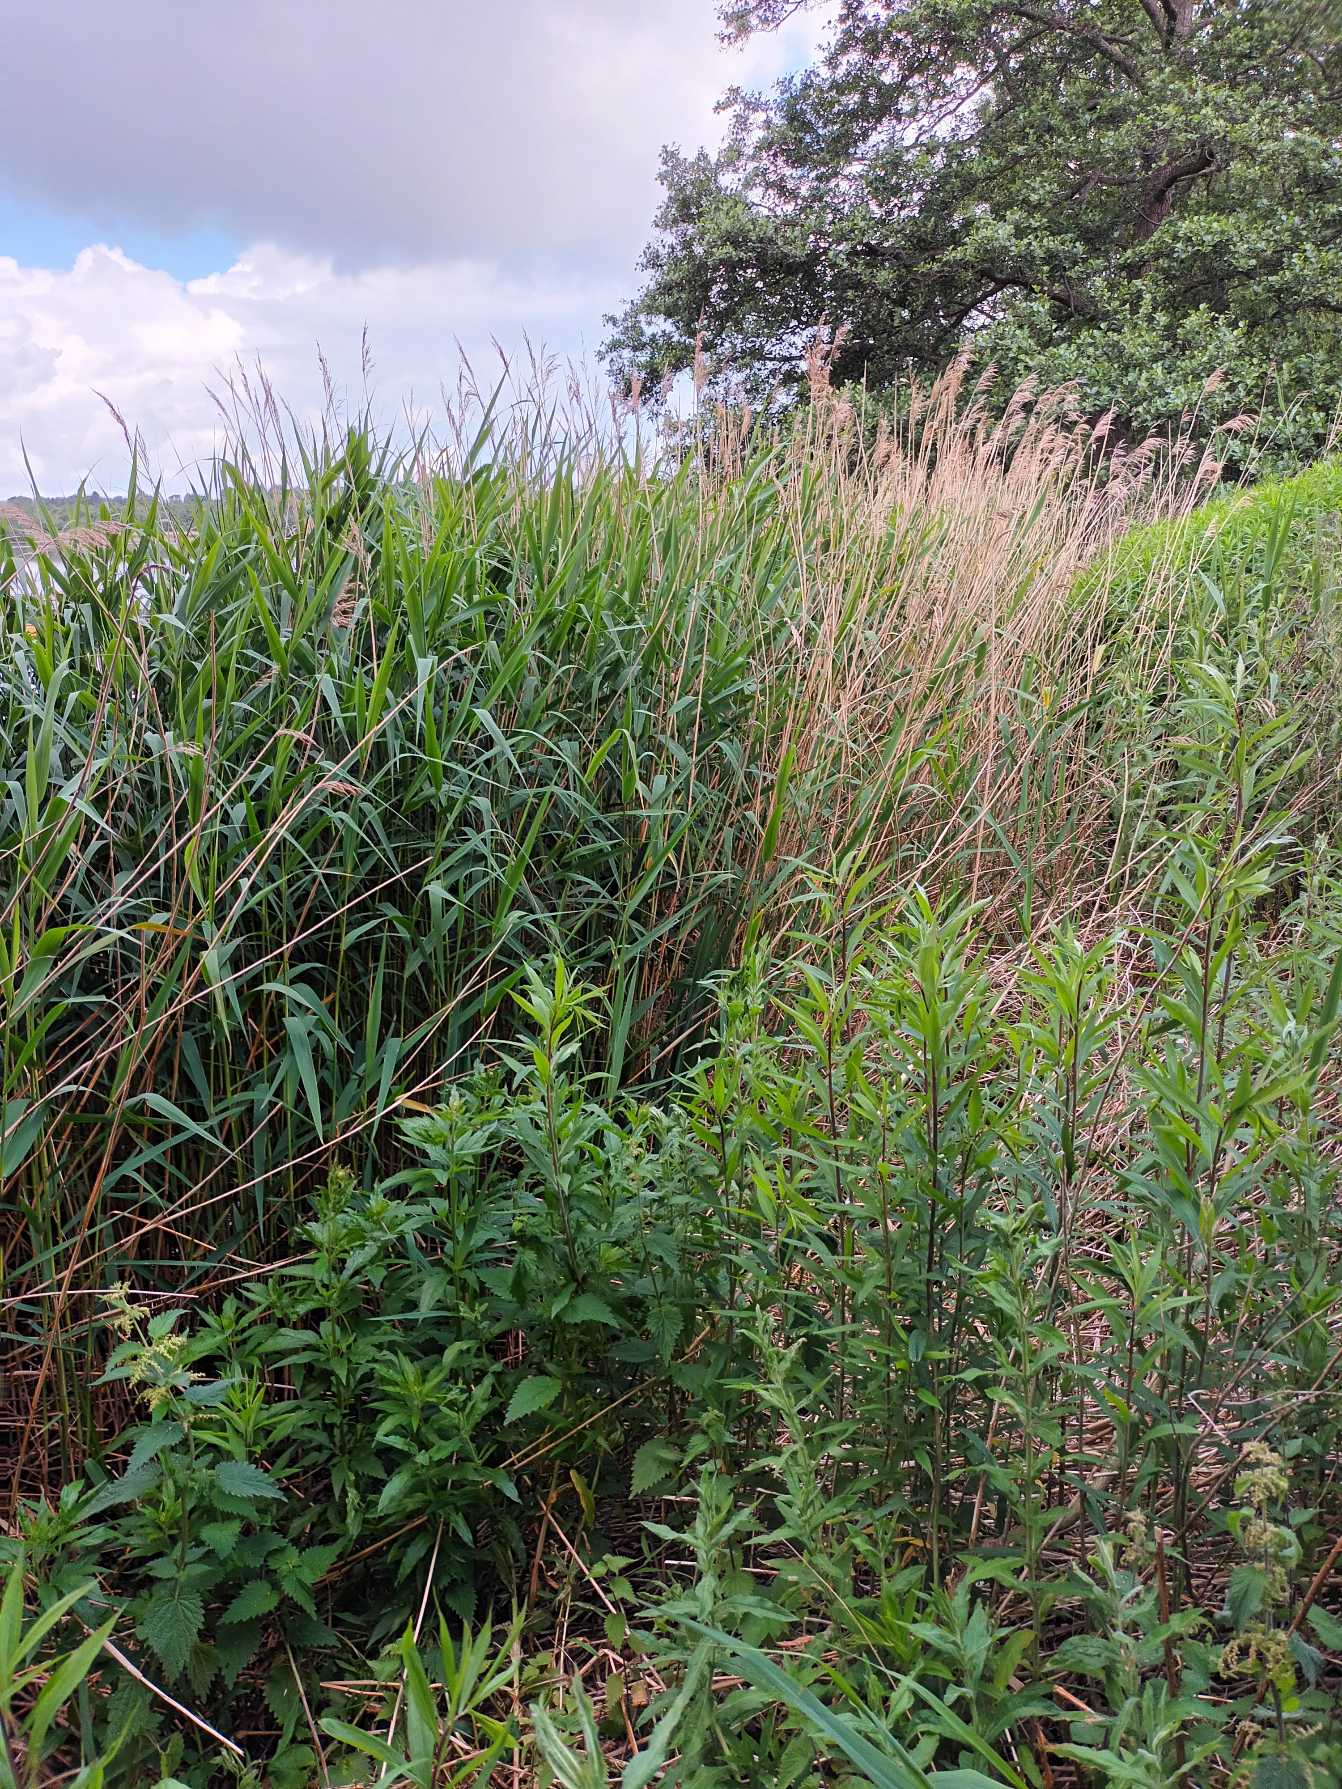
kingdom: Plantae
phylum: Tracheophyta
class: Liliopsida
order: Poales
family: Poaceae
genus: Phragmites
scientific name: Phragmites australis
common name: Tagrør
